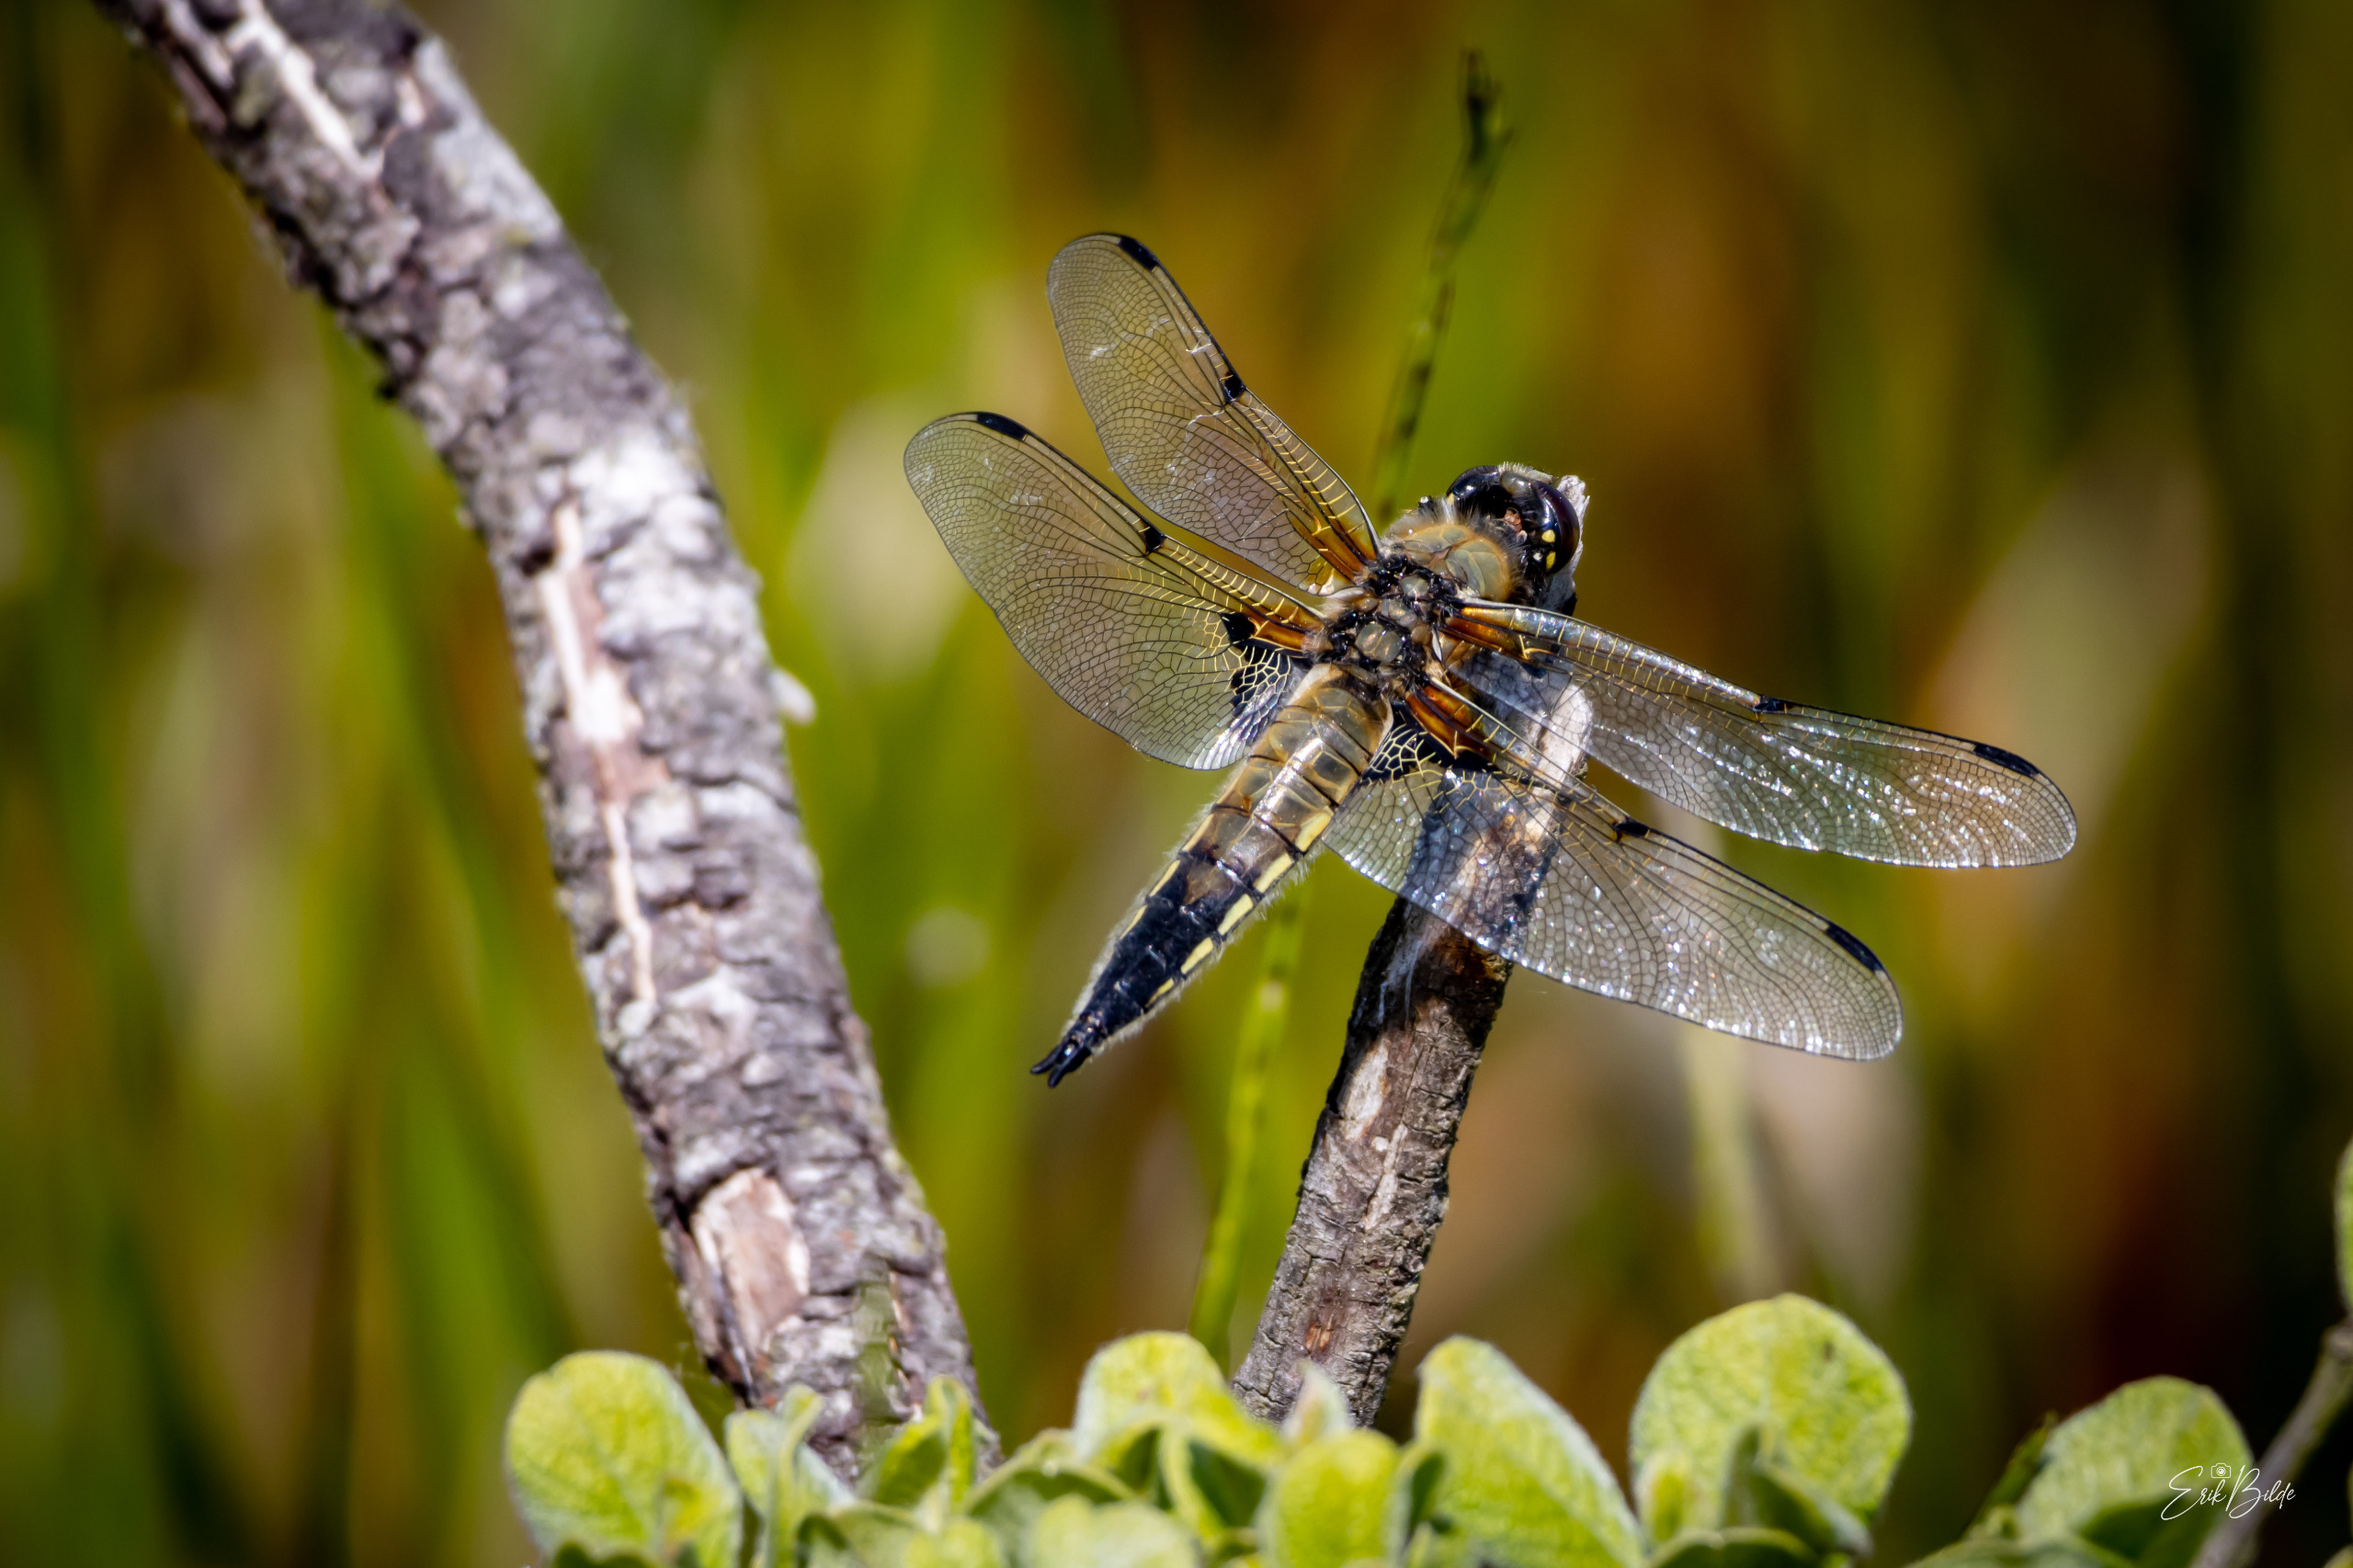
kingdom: Animalia
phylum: Arthropoda
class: Insecta
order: Odonata
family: Libellulidae
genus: Libellula
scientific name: Libellula quadrimaculata
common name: Fireplettet libel
